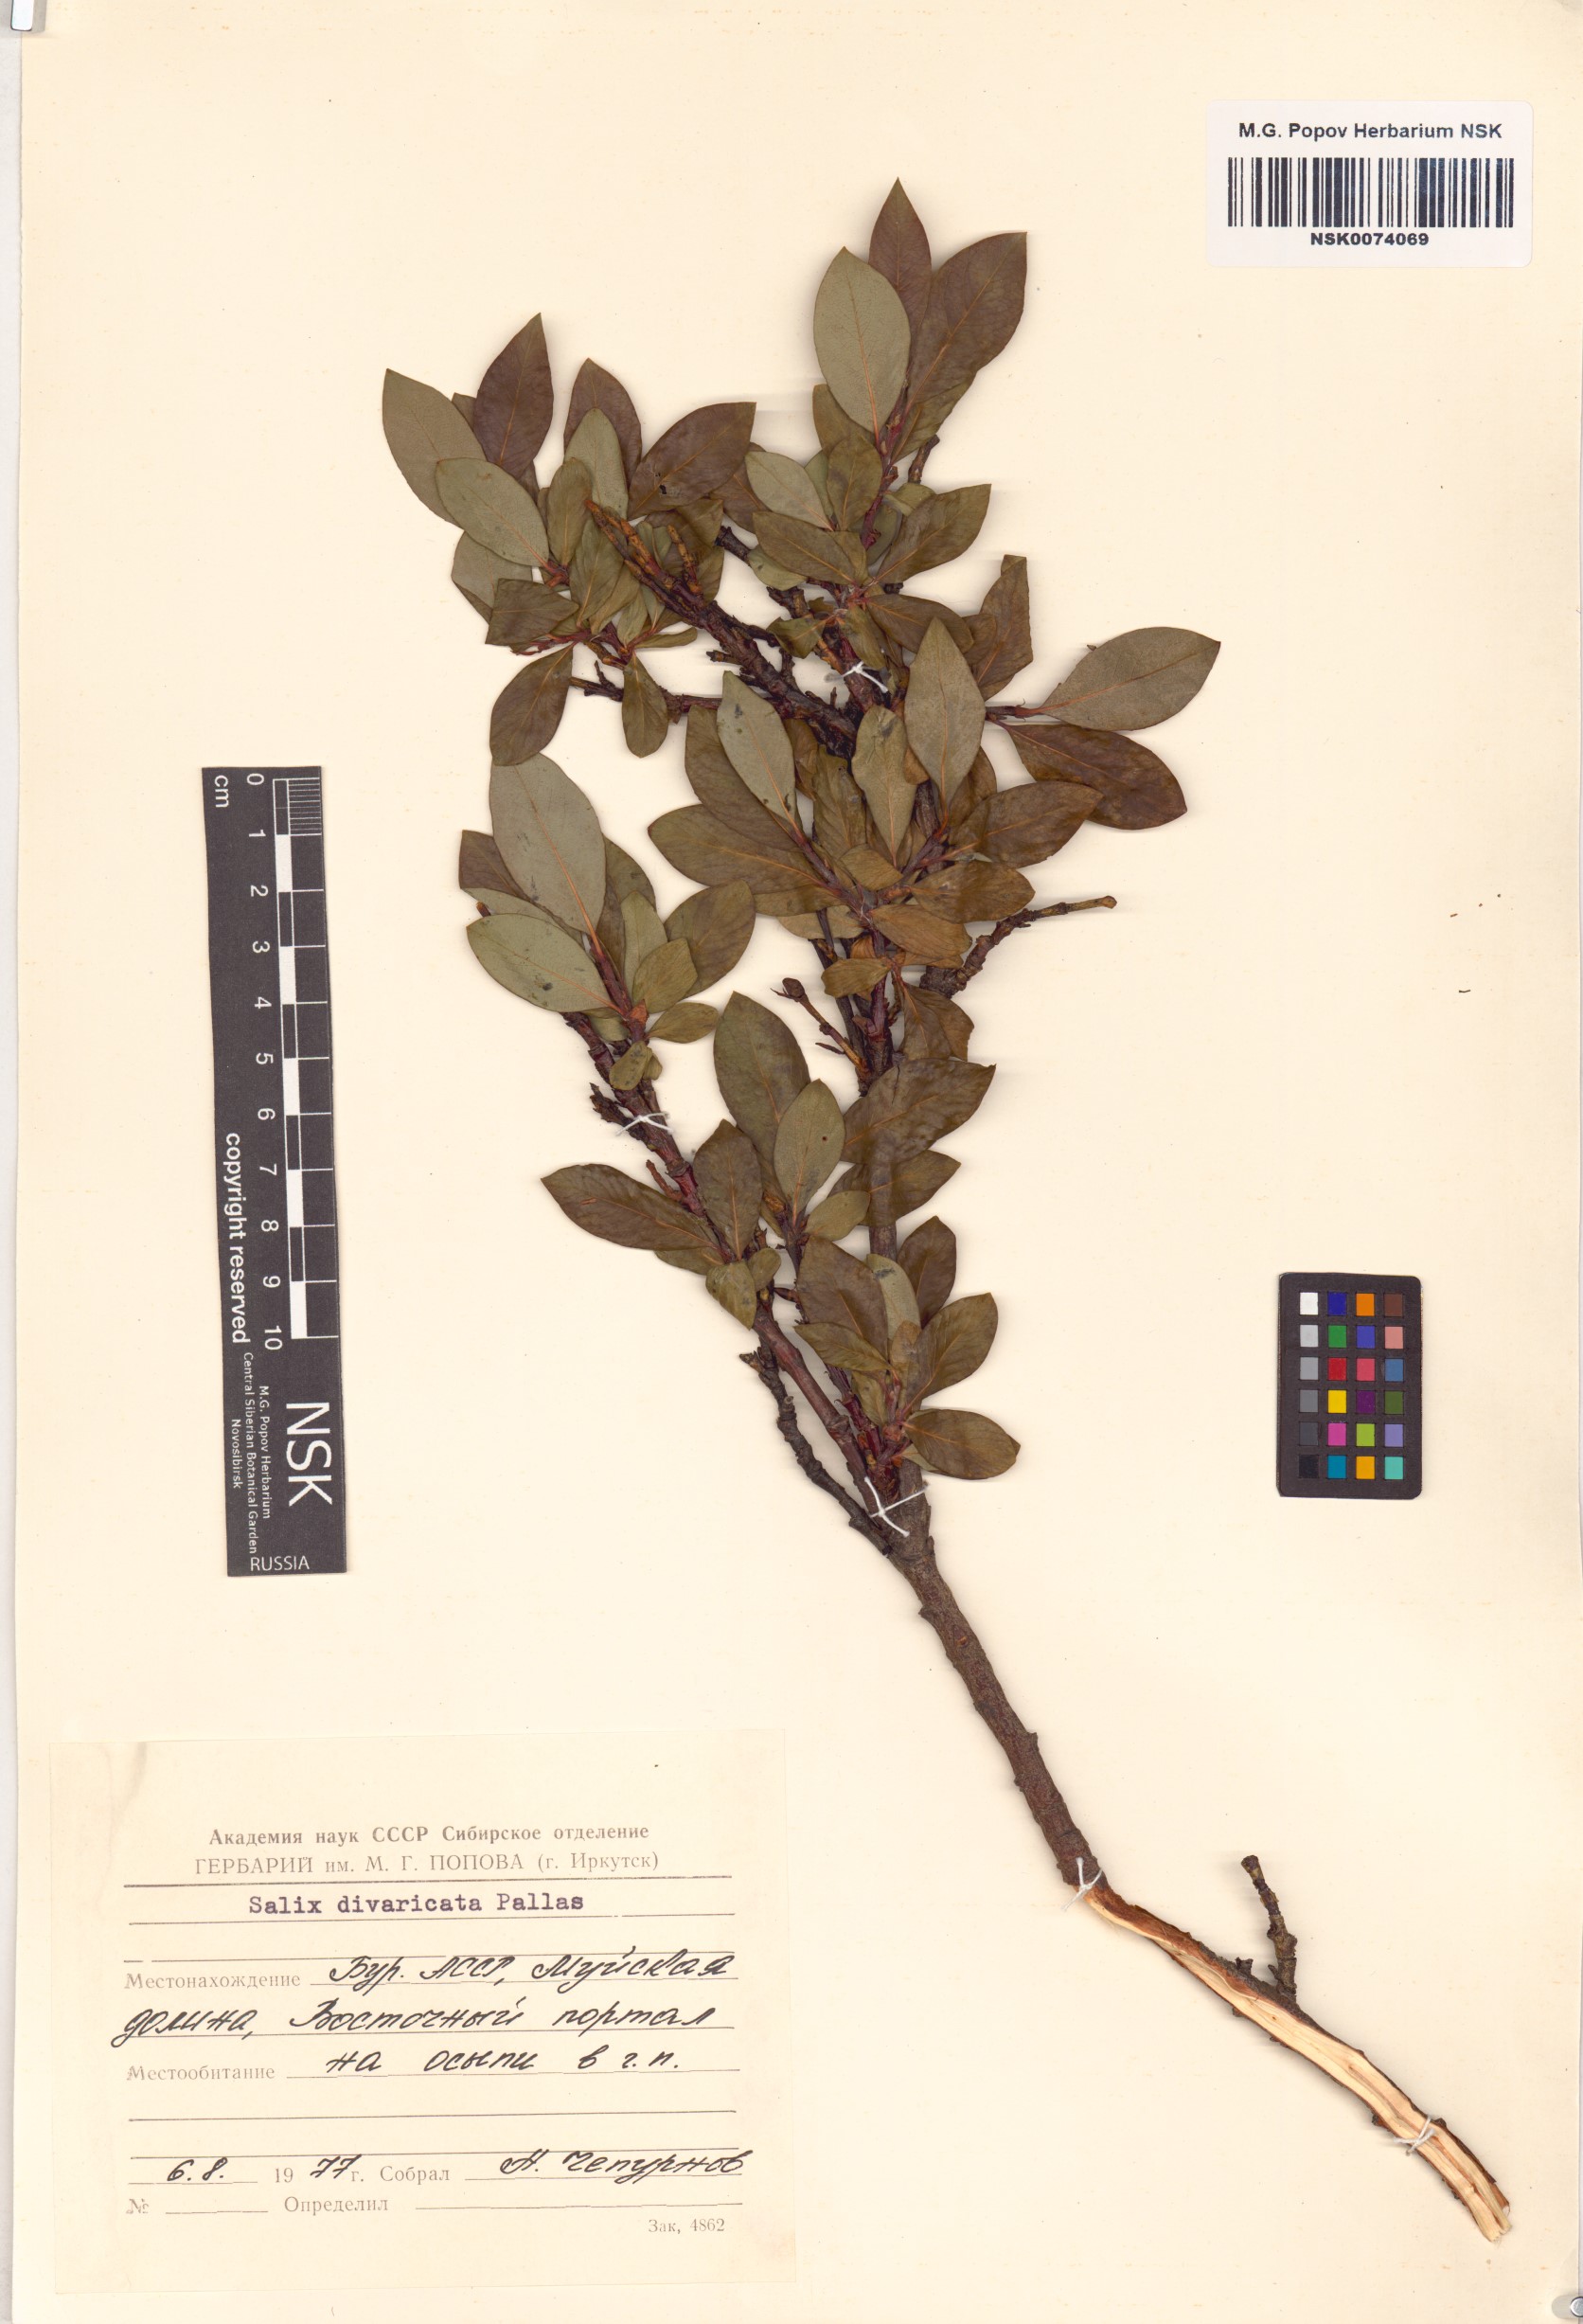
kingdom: Plantae
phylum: Tracheophyta
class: Magnoliopsida
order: Malpighiales
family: Salicaceae
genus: Salix
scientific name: Salix divaricata
